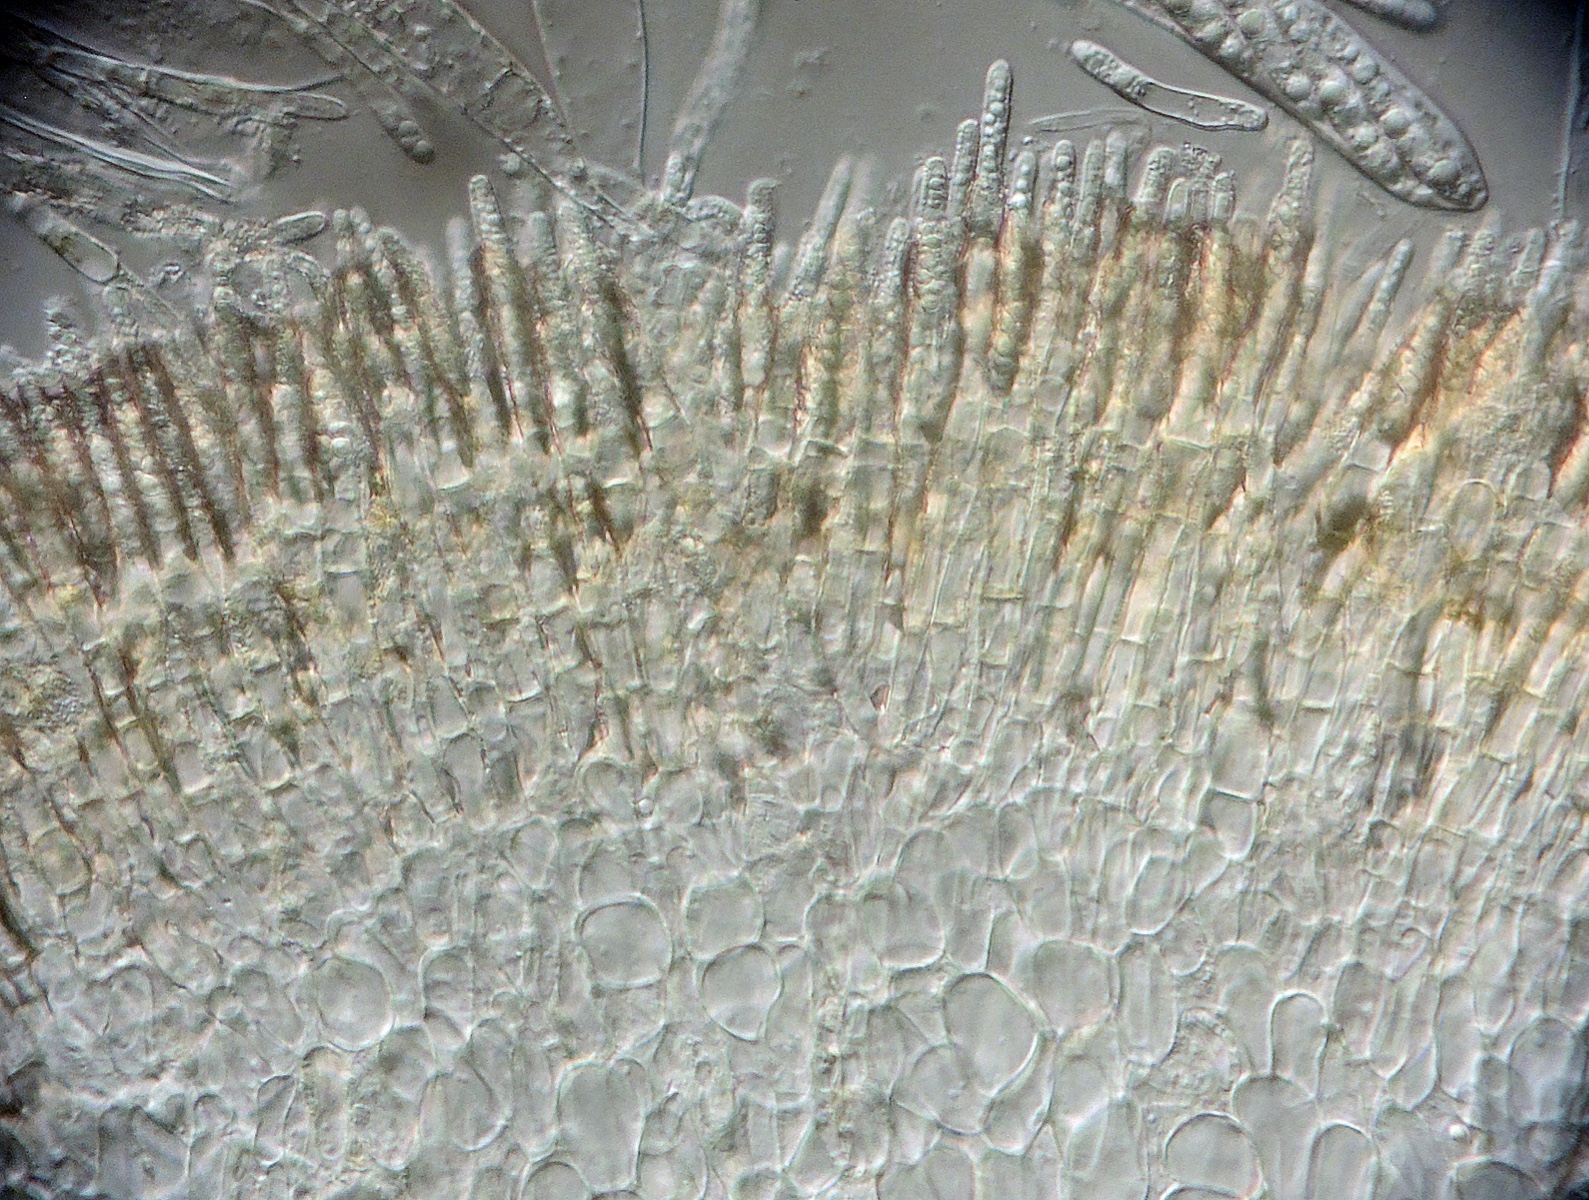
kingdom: Fungi
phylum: Ascomycota
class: Leotiomycetes
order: Helotiales
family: Dermateaceae
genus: Coronellaria
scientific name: Coronellaria pulicaris
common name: kogleaks-pelsskive
